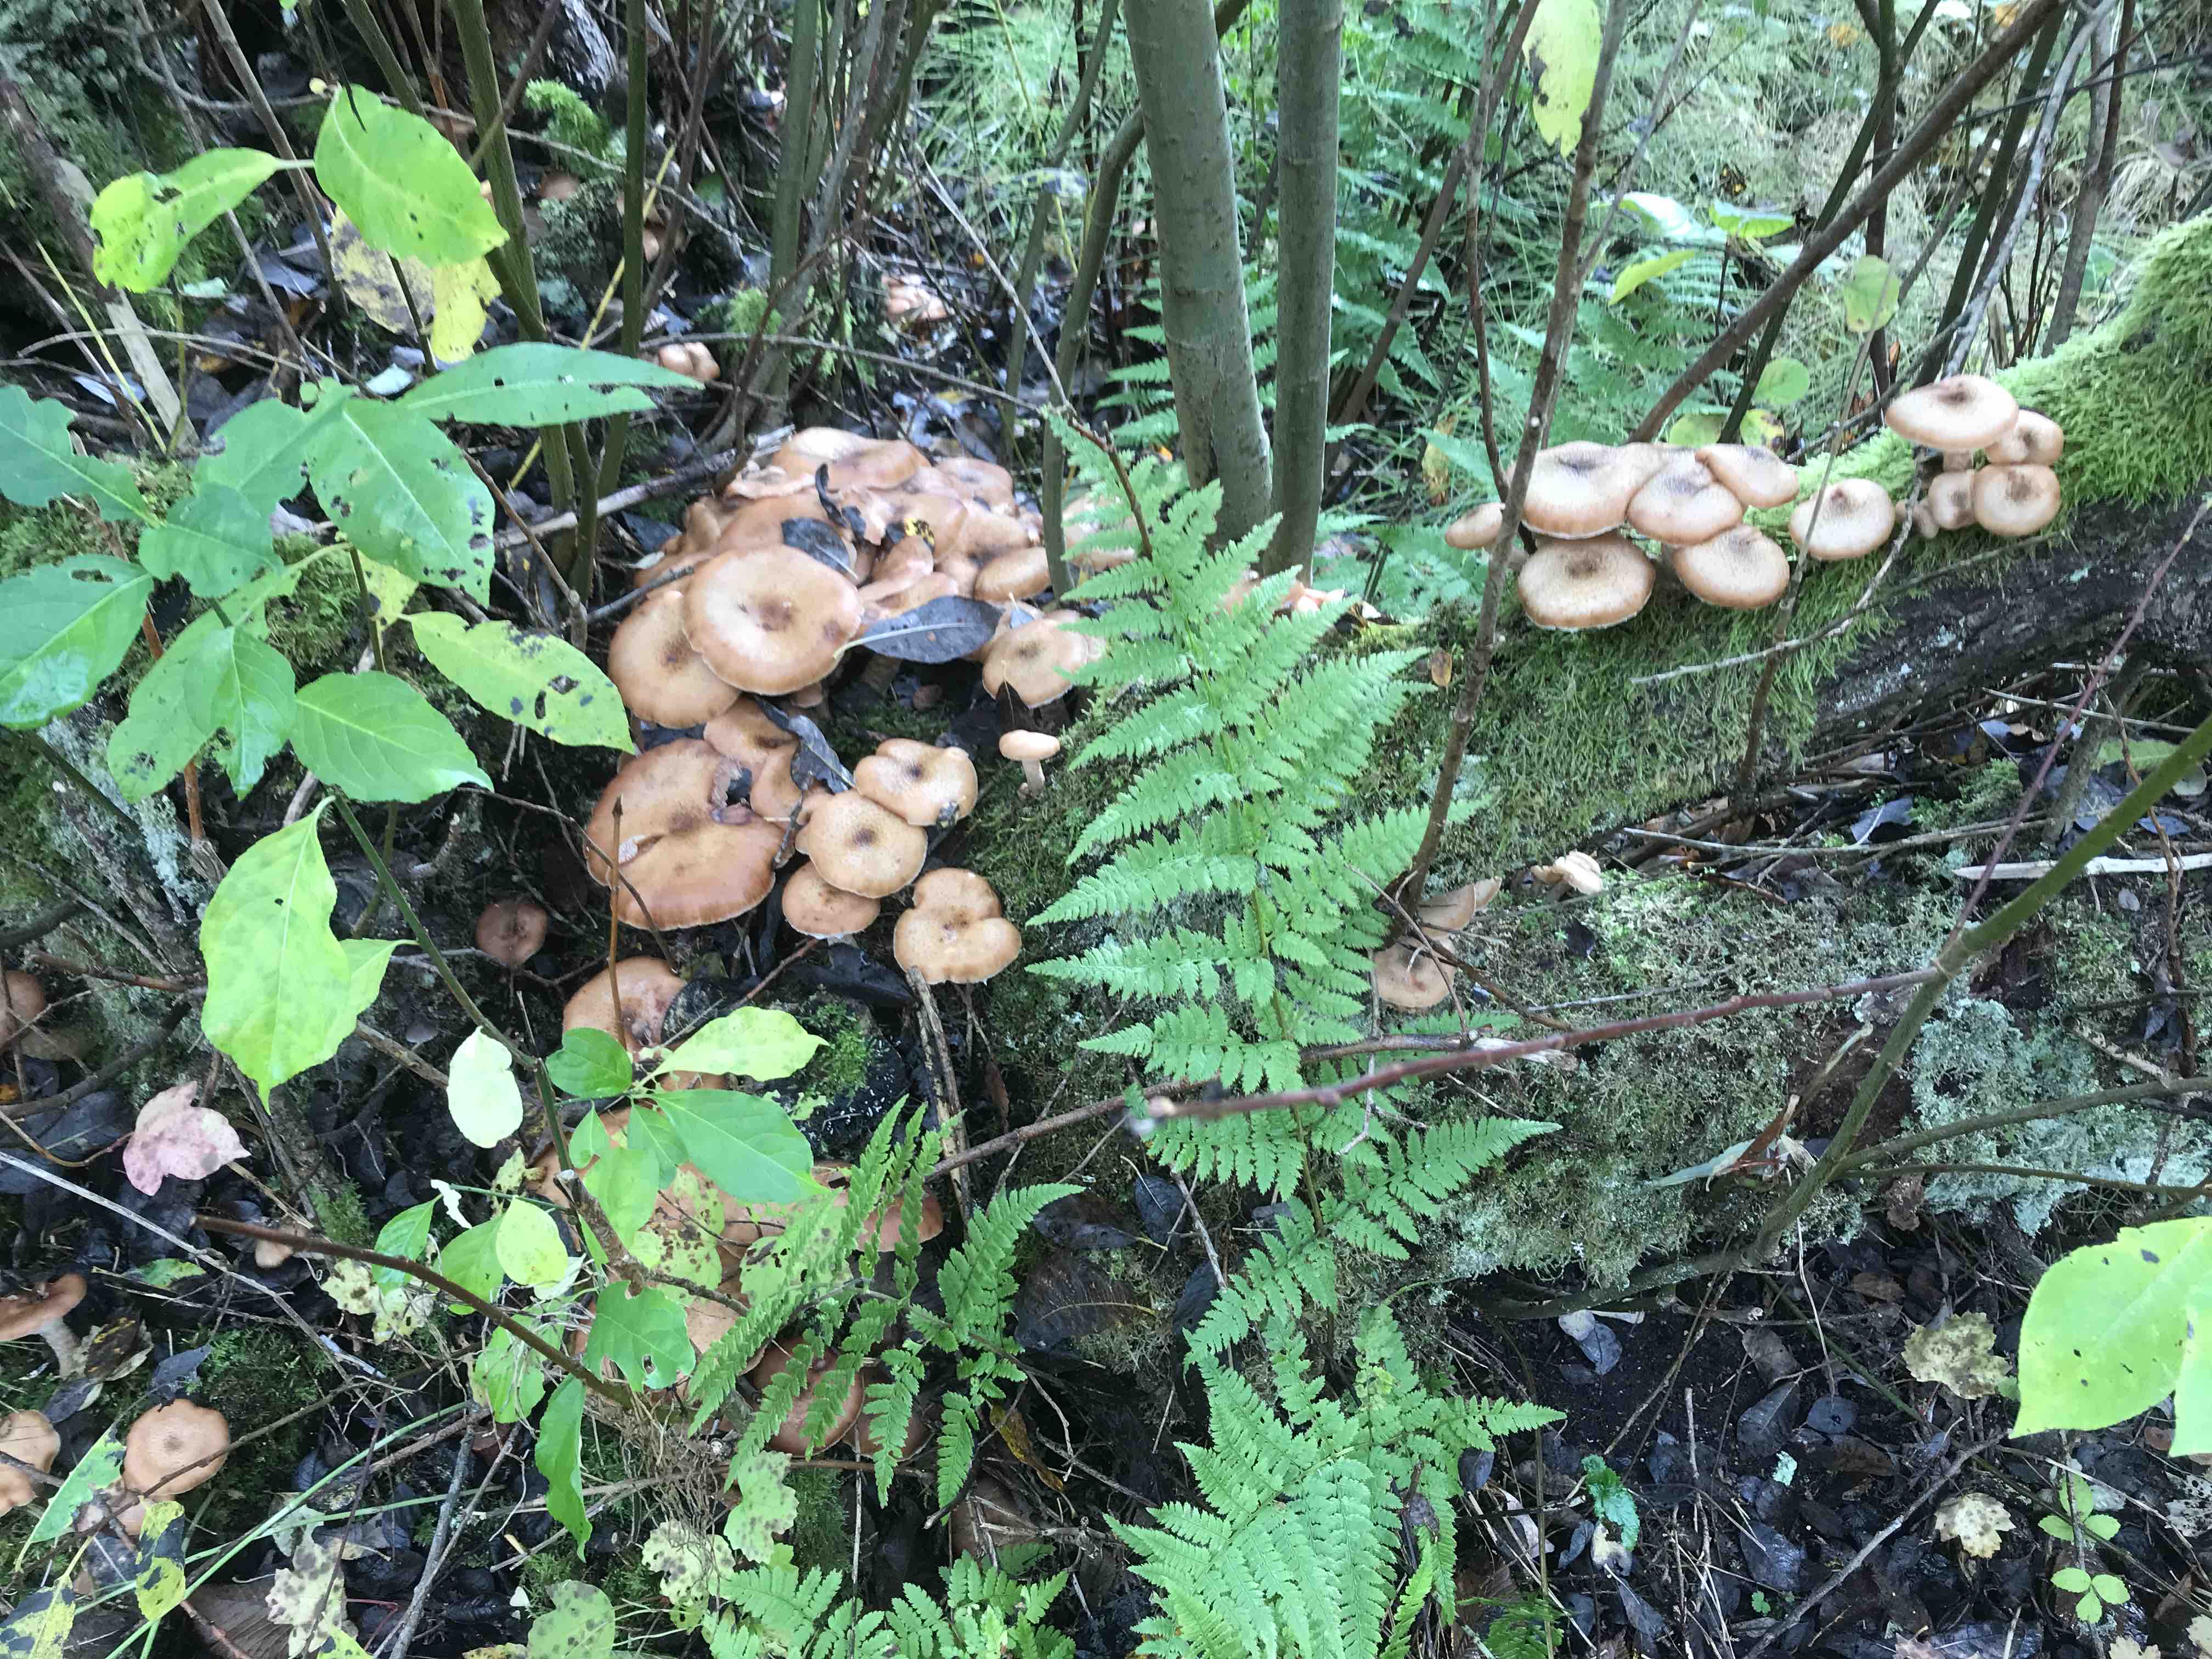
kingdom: Fungi
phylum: Basidiomycota
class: Agaricomycetes
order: Agaricales
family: Physalacriaceae
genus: Armillaria
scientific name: Armillaria lutea
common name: køllestokket honningsvamp
